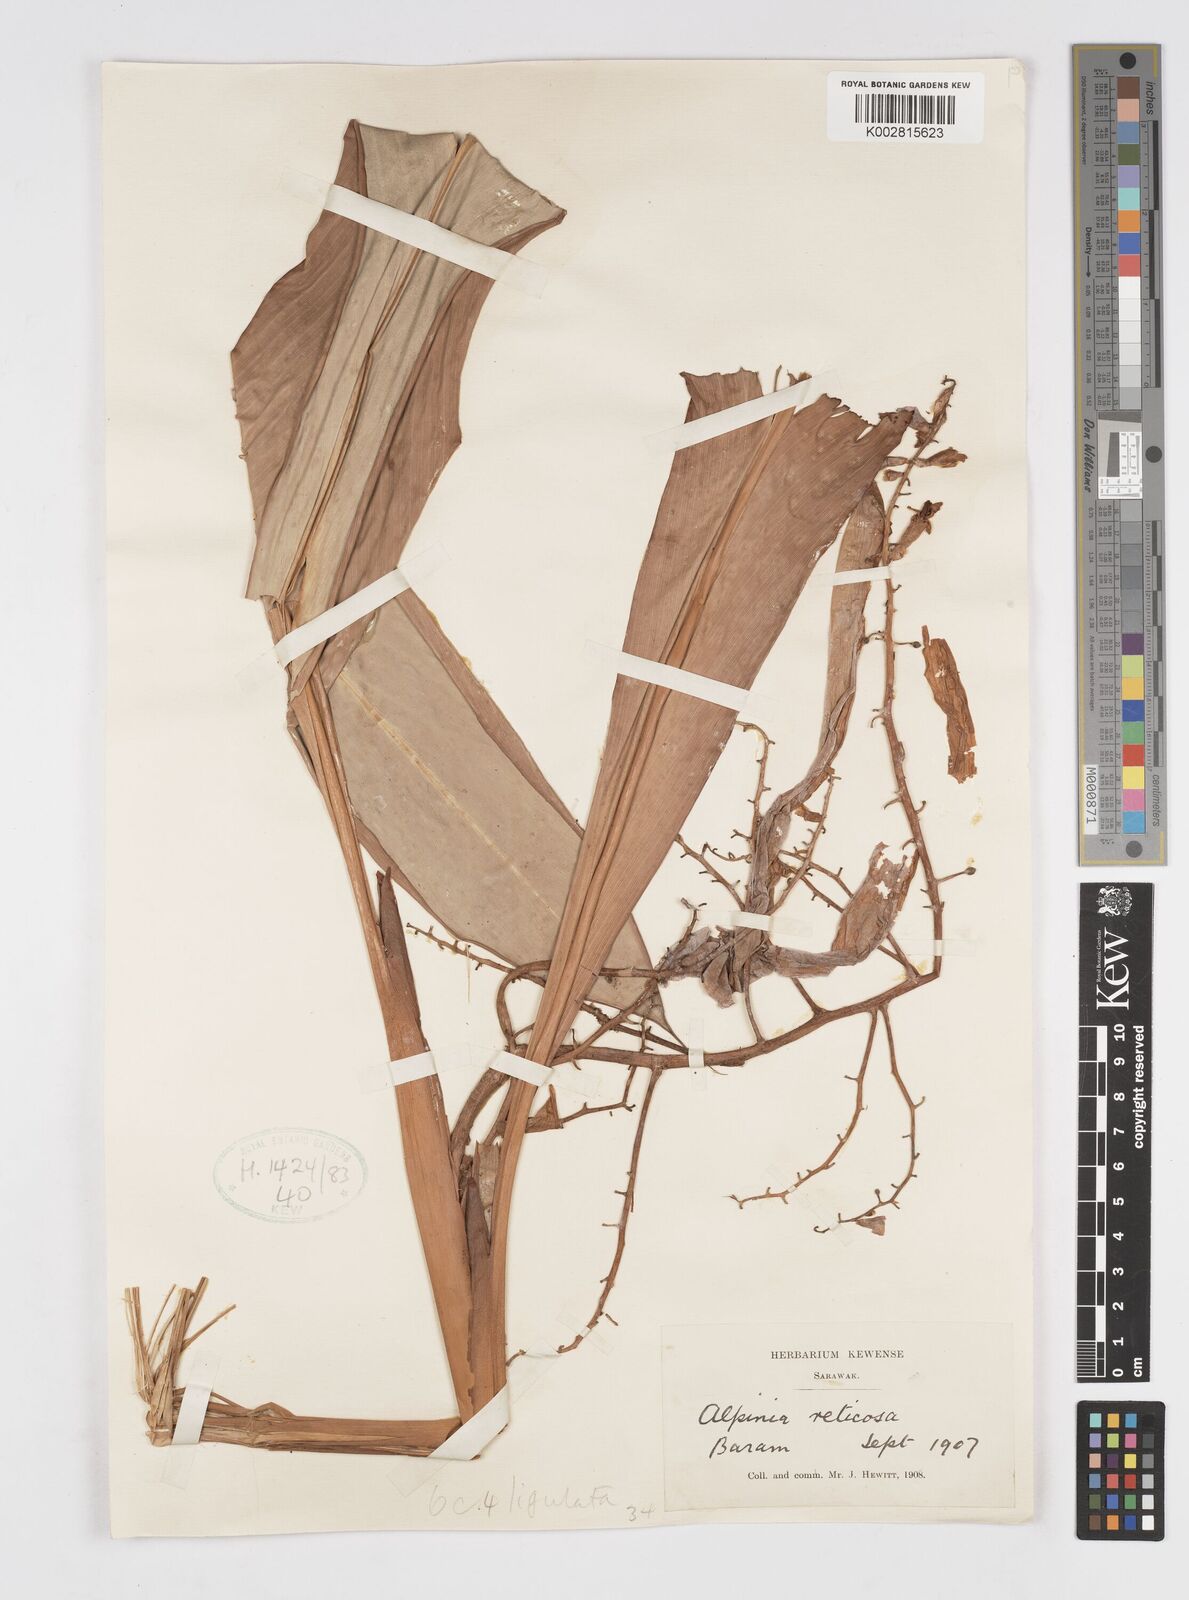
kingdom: Plantae
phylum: Tracheophyta
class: Liliopsida
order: Zingiberales
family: Zingiberaceae
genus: Alpinia
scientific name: Alpinia ligulata
